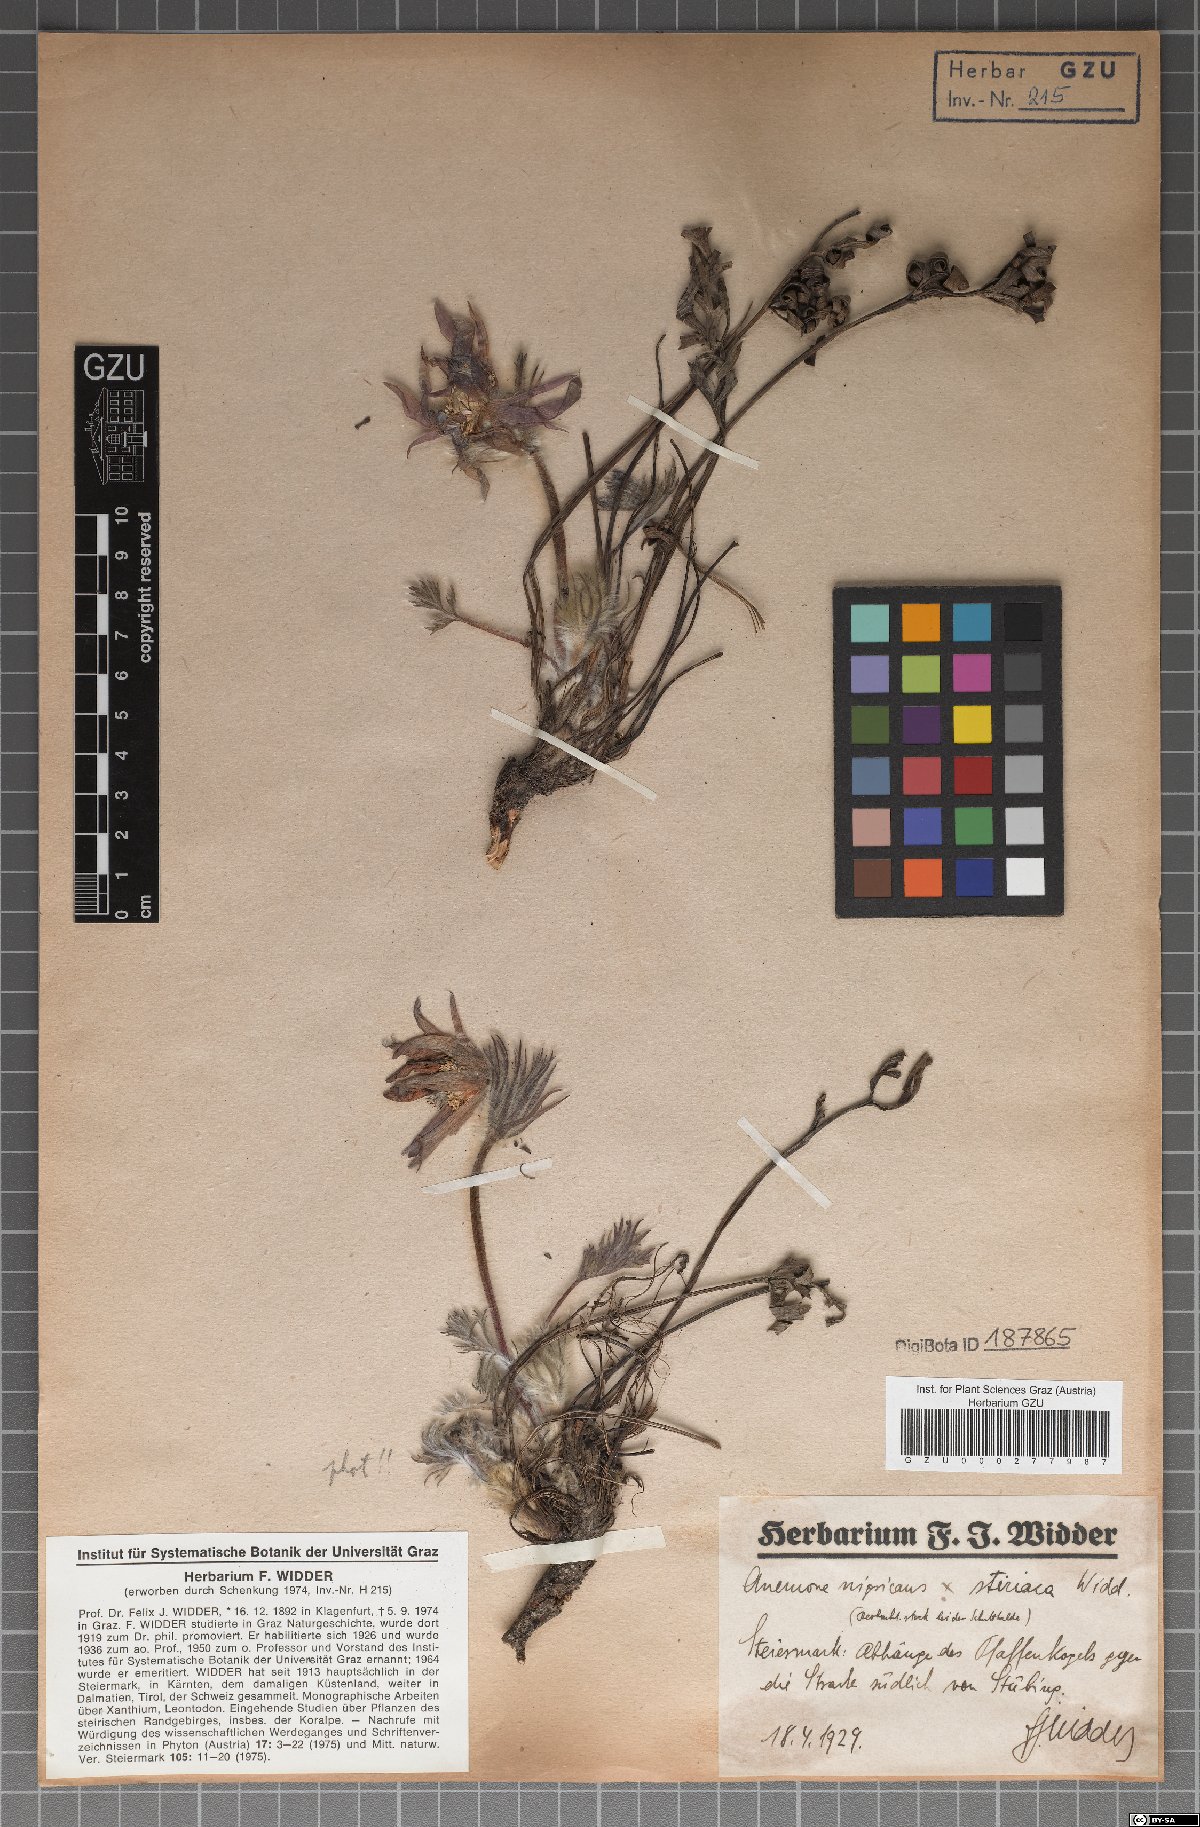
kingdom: Plantae
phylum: Tracheophyta
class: Magnoliopsida
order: Ranunculales
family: Ranunculaceae
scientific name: Ranunculaceae
